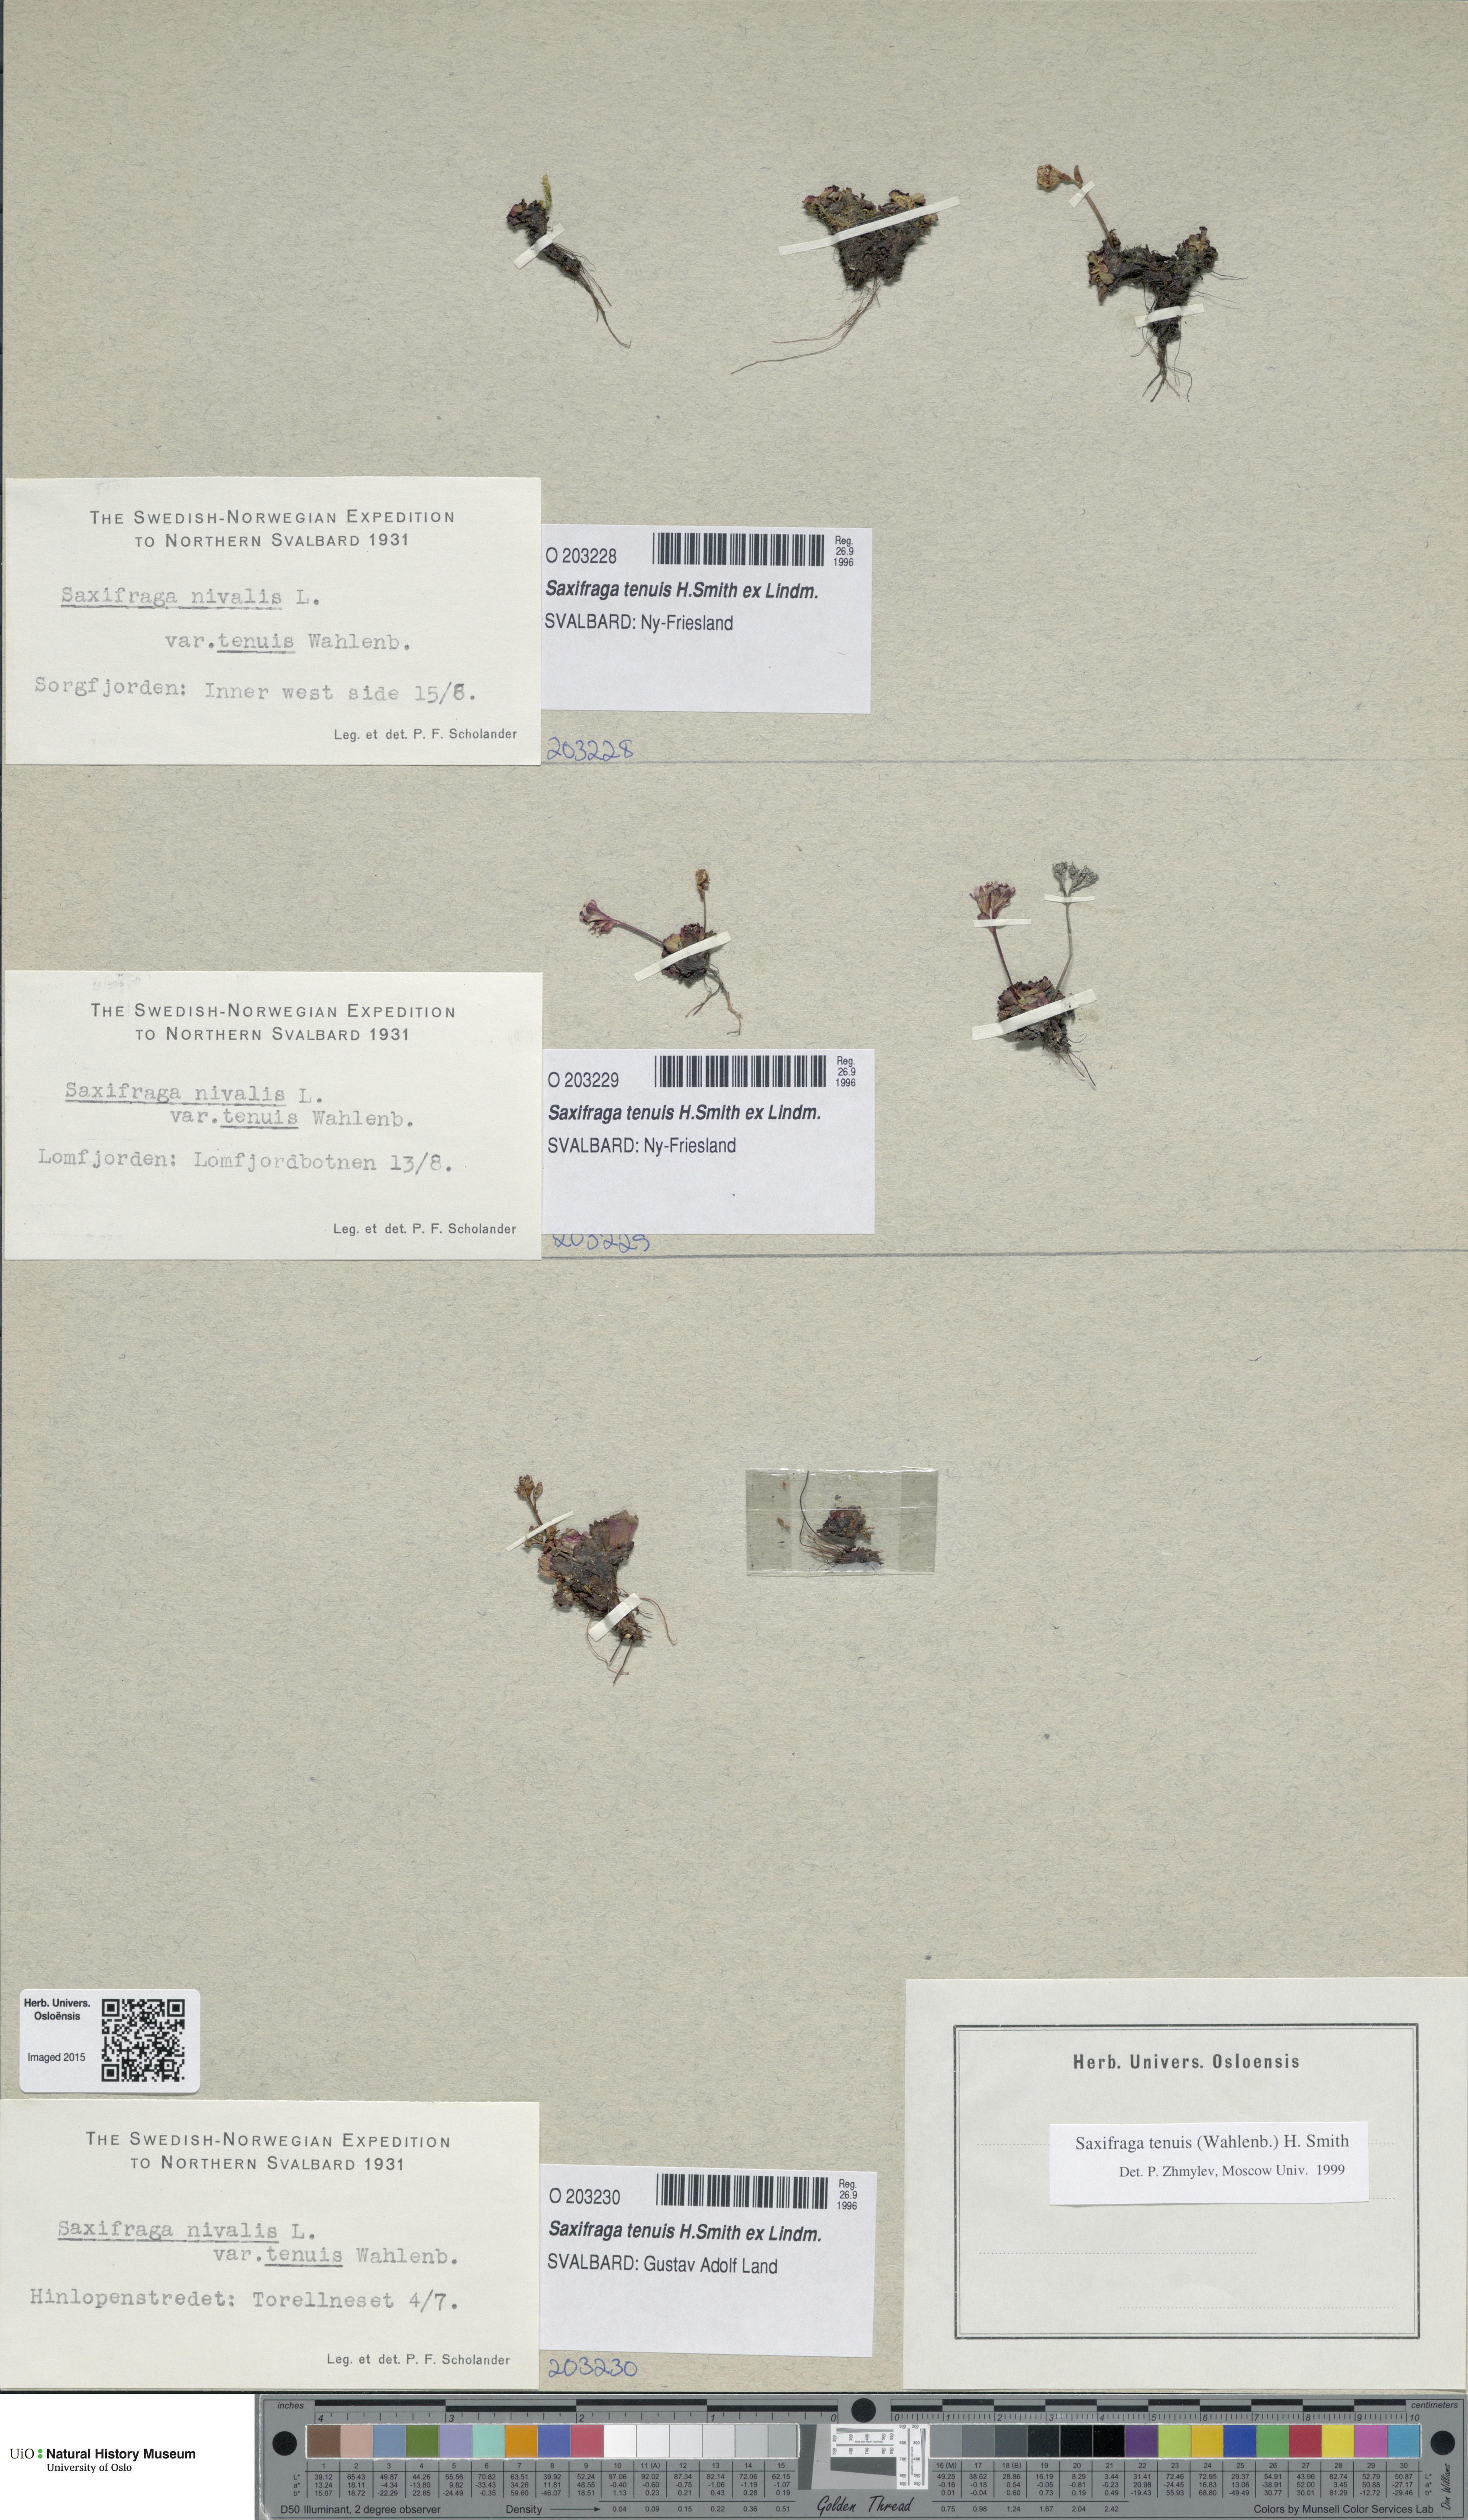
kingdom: Plantae
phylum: Tracheophyta
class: Magnoliopsida
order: Saxifragales
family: Saxifragaceae
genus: Micranthes
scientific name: Micranthes tenuis
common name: Ottertail pass saxifrage
